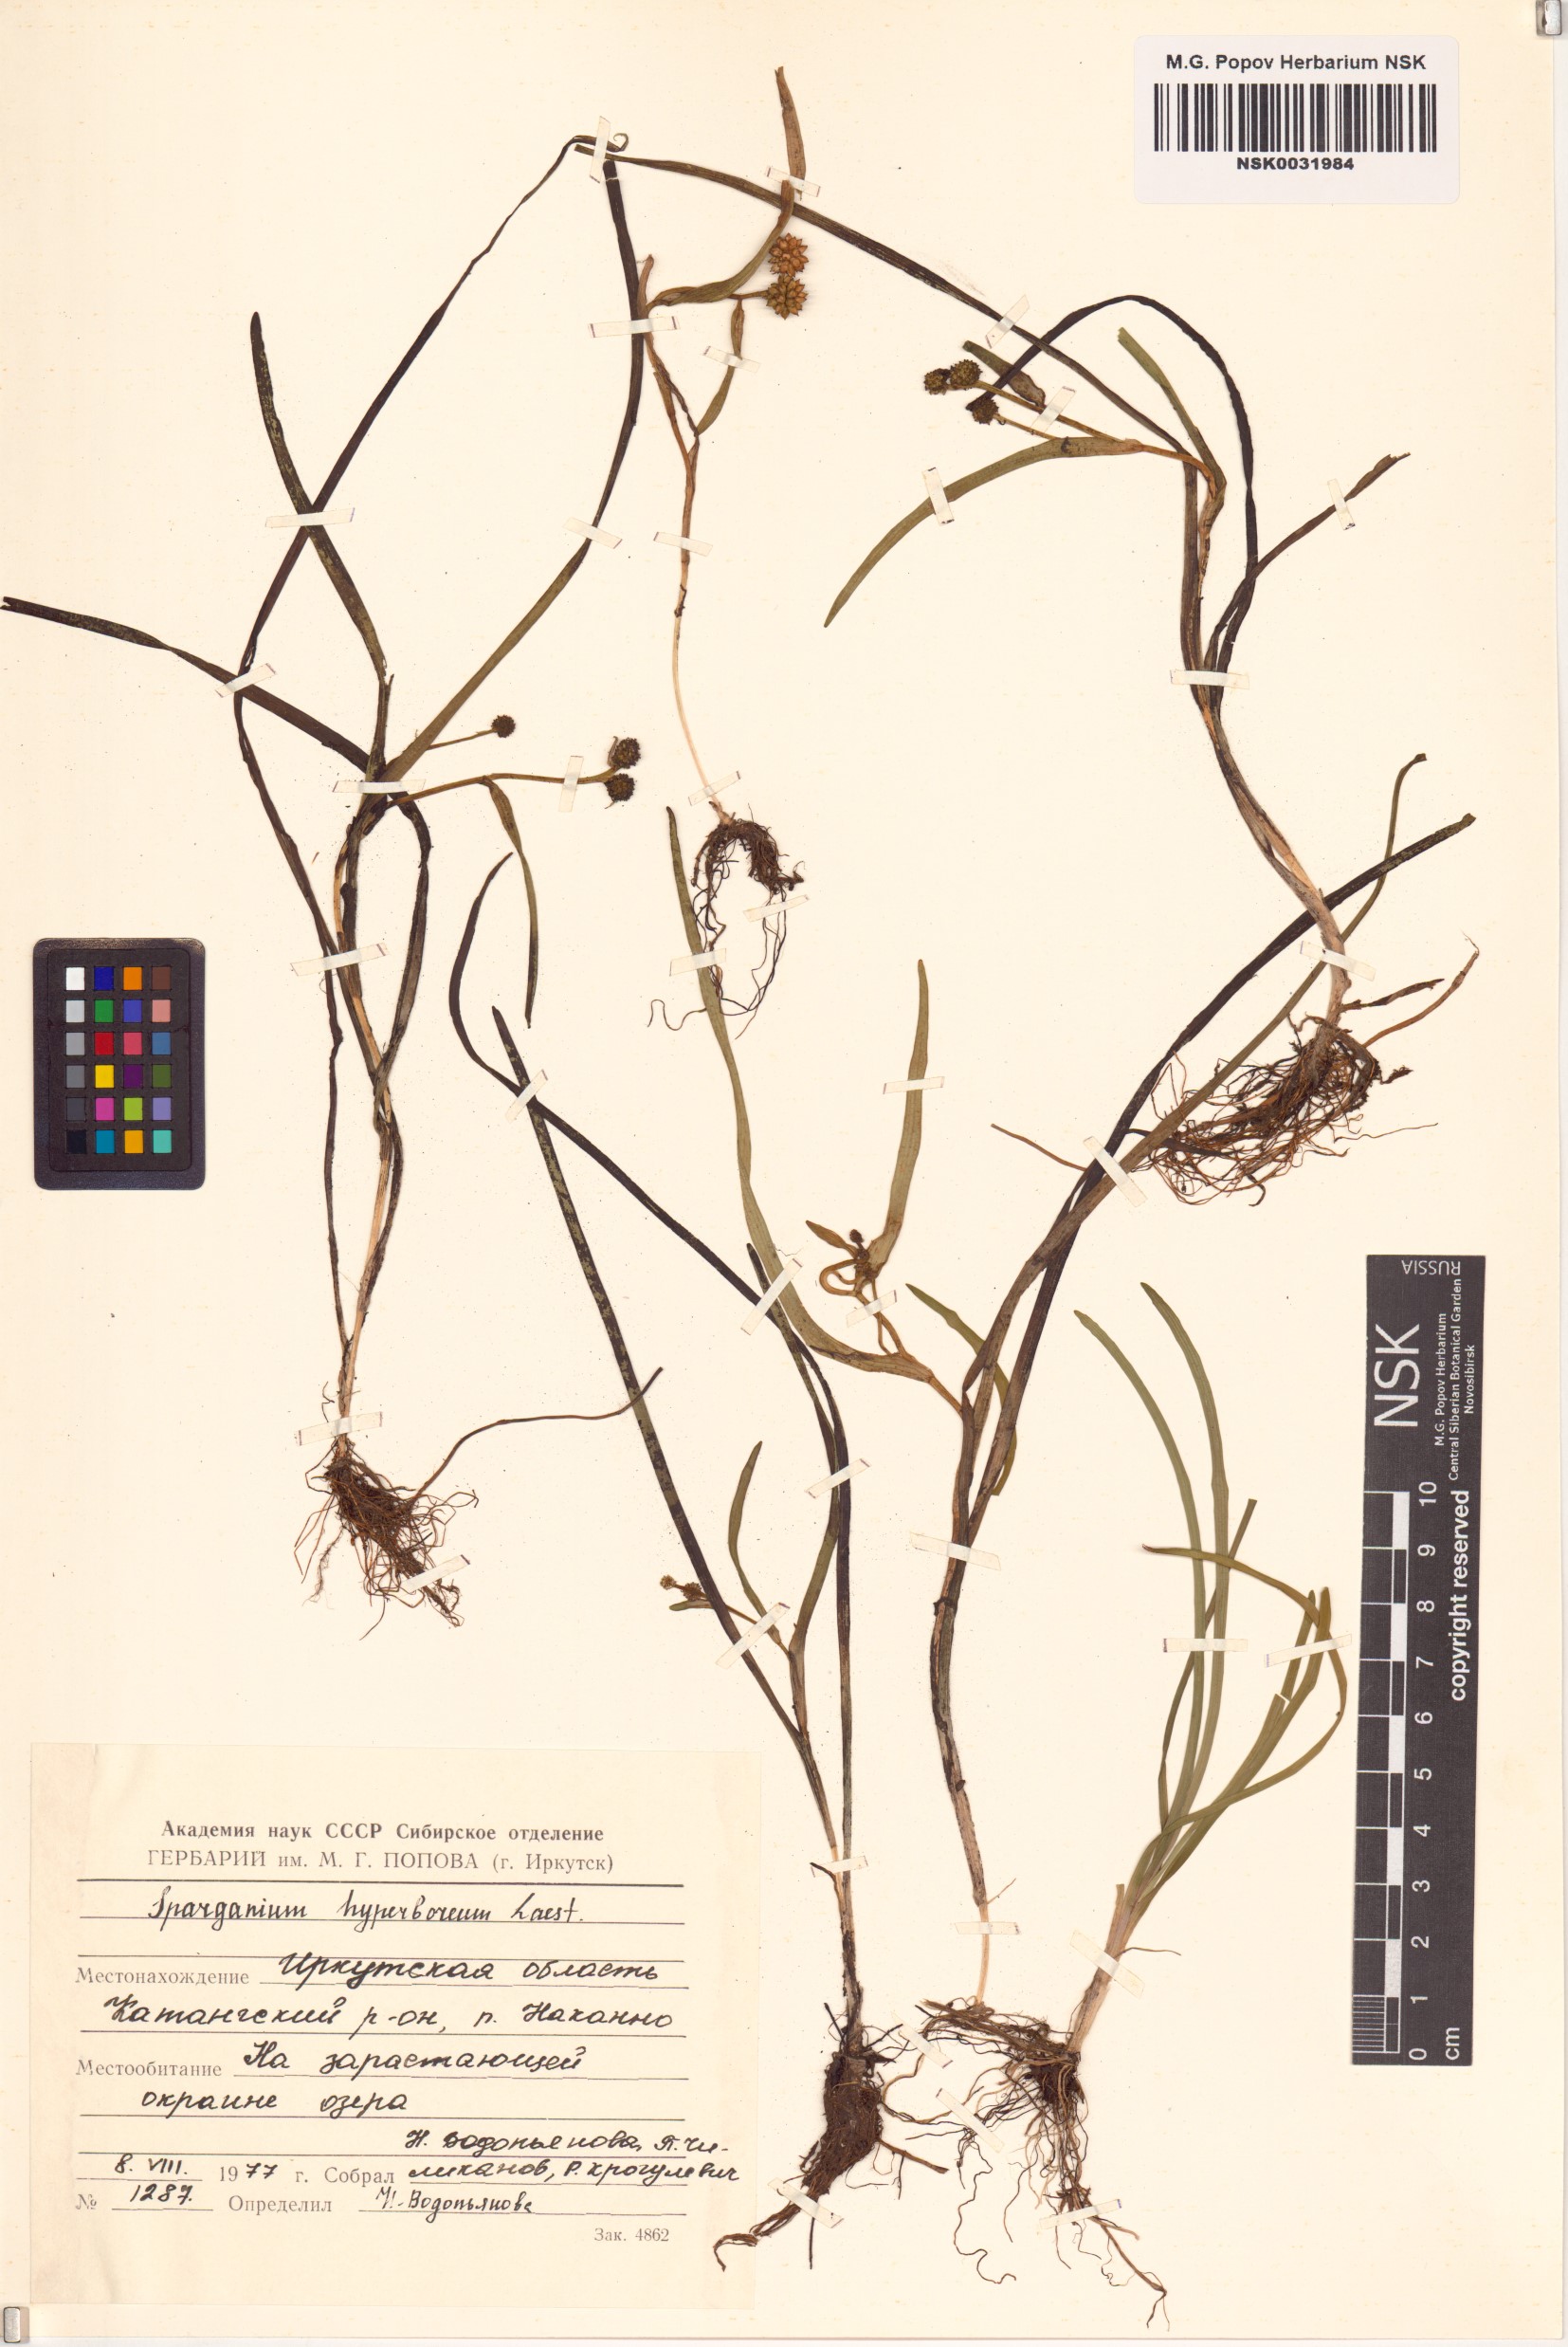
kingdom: Plantae
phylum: Tracheophyta
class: Liliopsida
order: Poales
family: Typhaceae
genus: Sparganium
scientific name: Sparganium hyperboreum
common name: Arctic burreed
